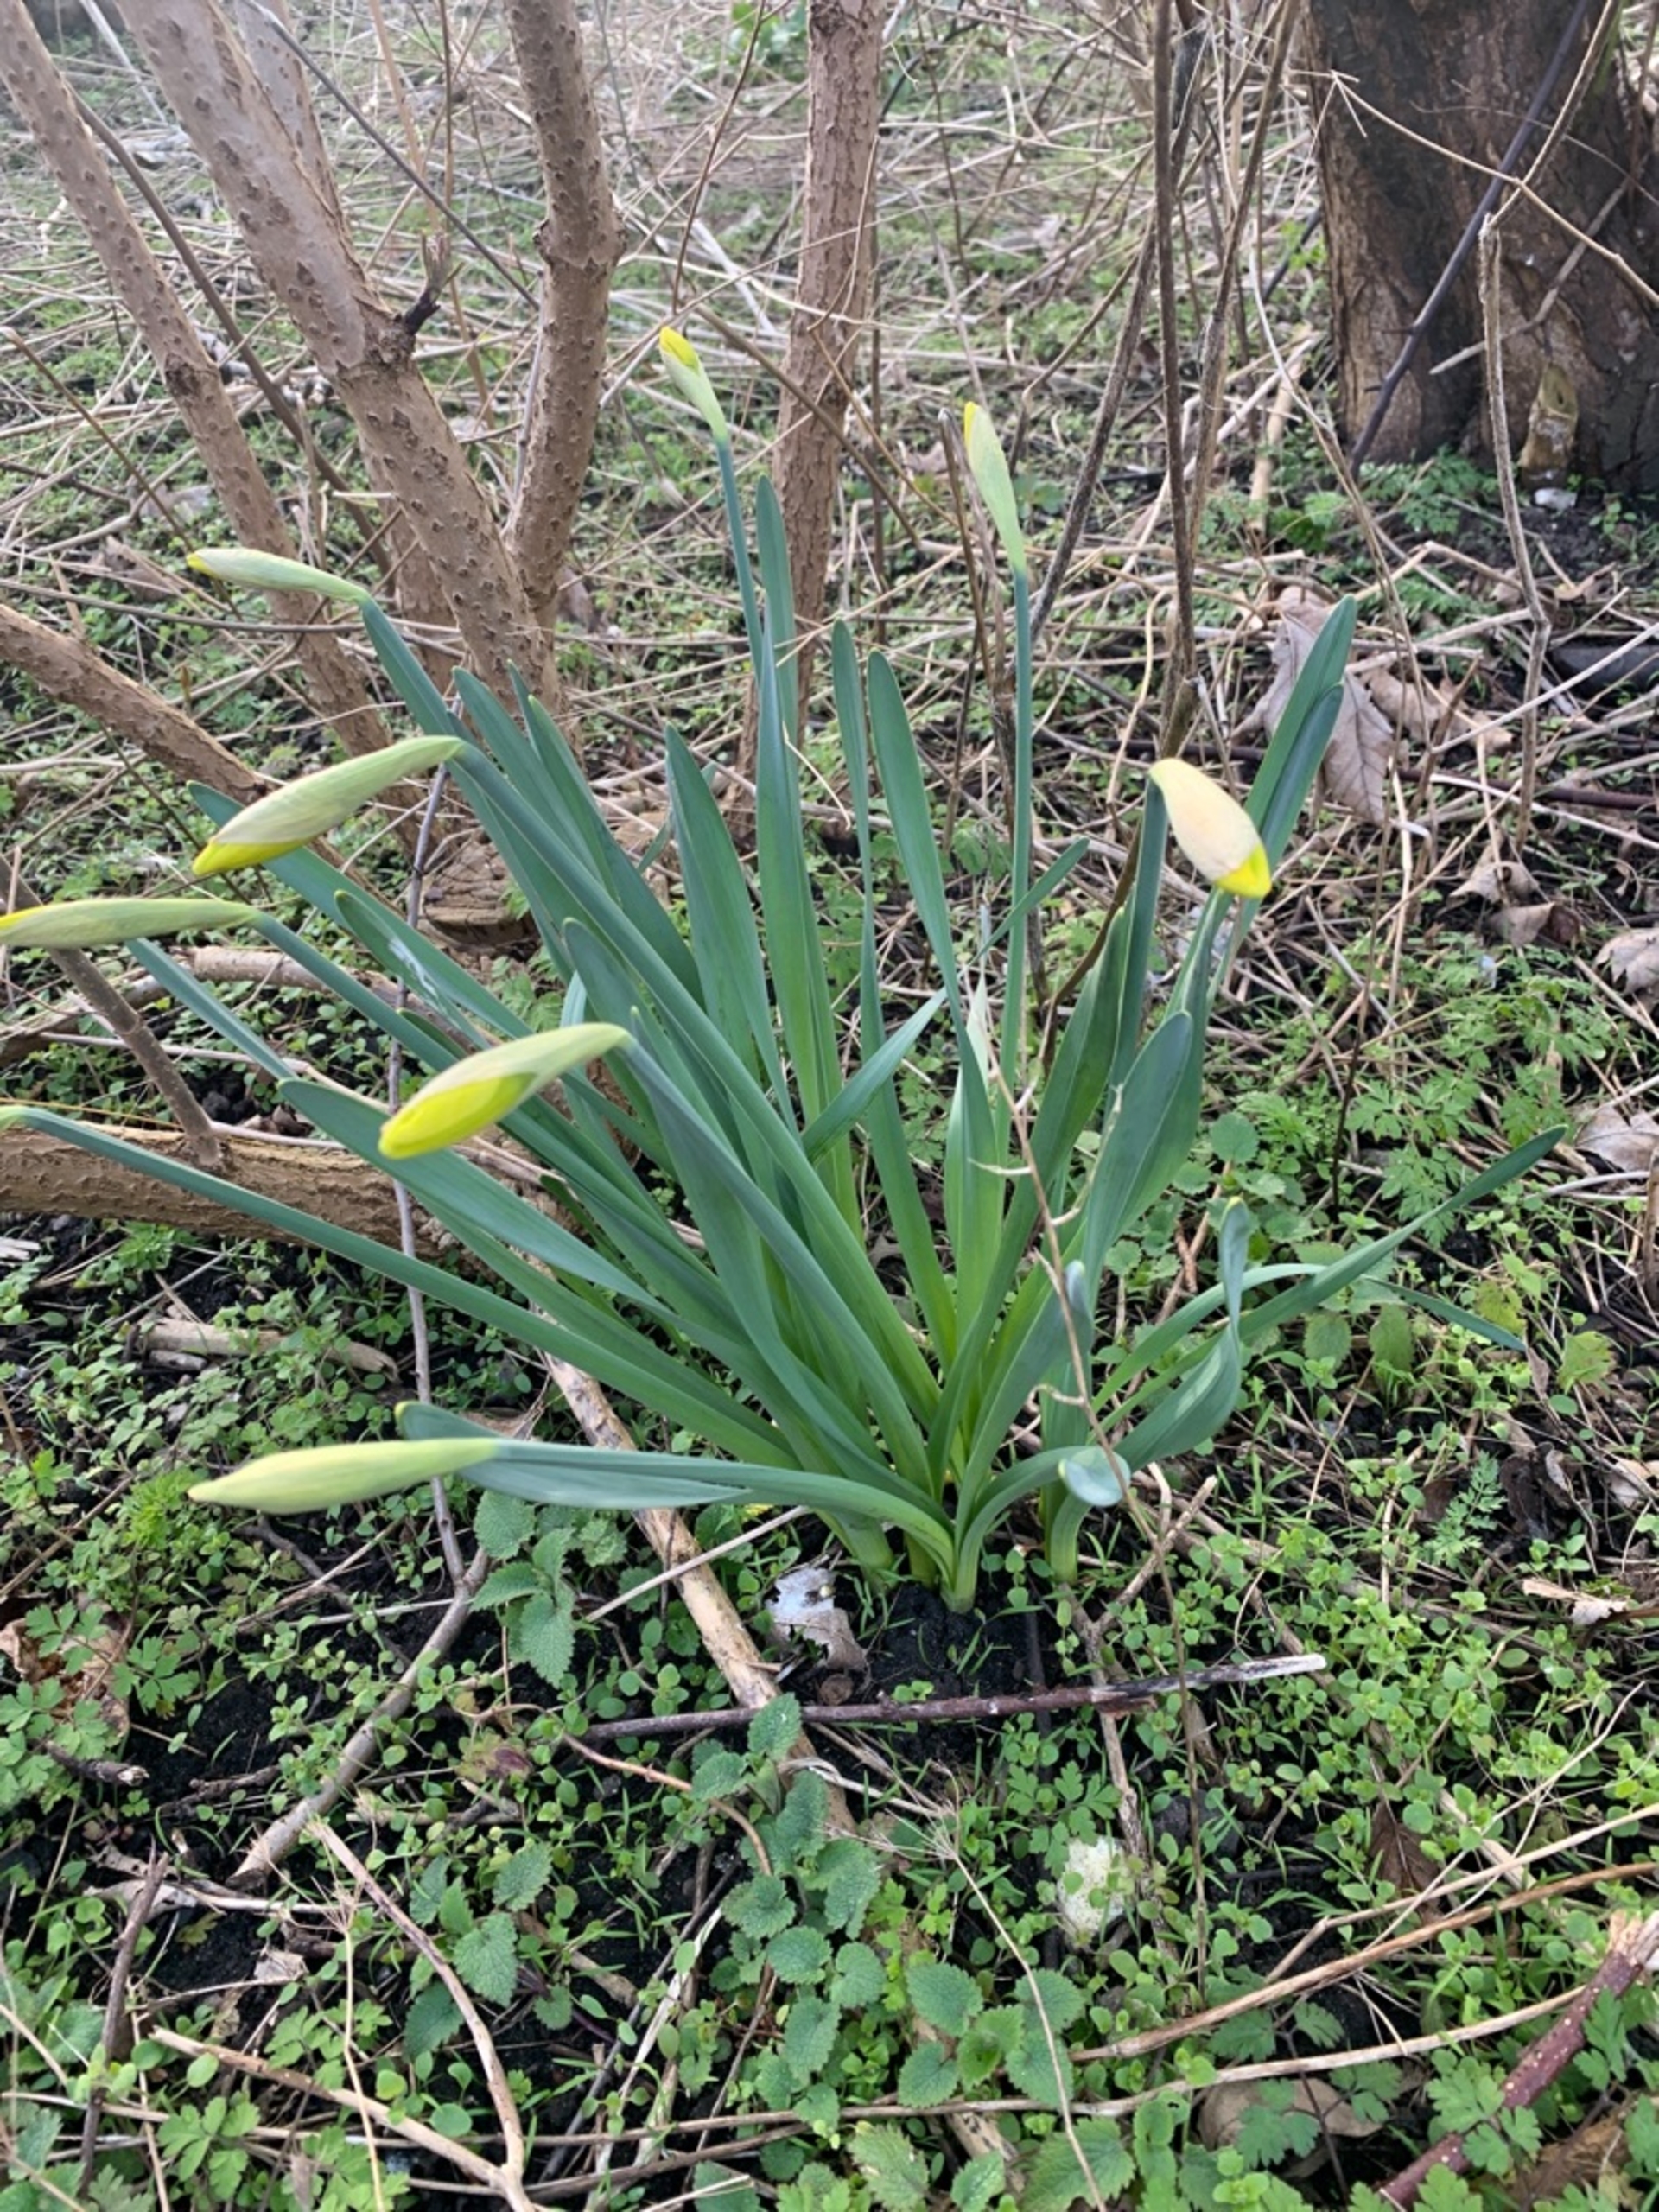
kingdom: Plantae
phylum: Tracheophyta
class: Liliopsida
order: Asparagales
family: Amaryllidaceae
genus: Narcissus
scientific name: Narcissus pseudonarcissus
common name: Påskelilje
